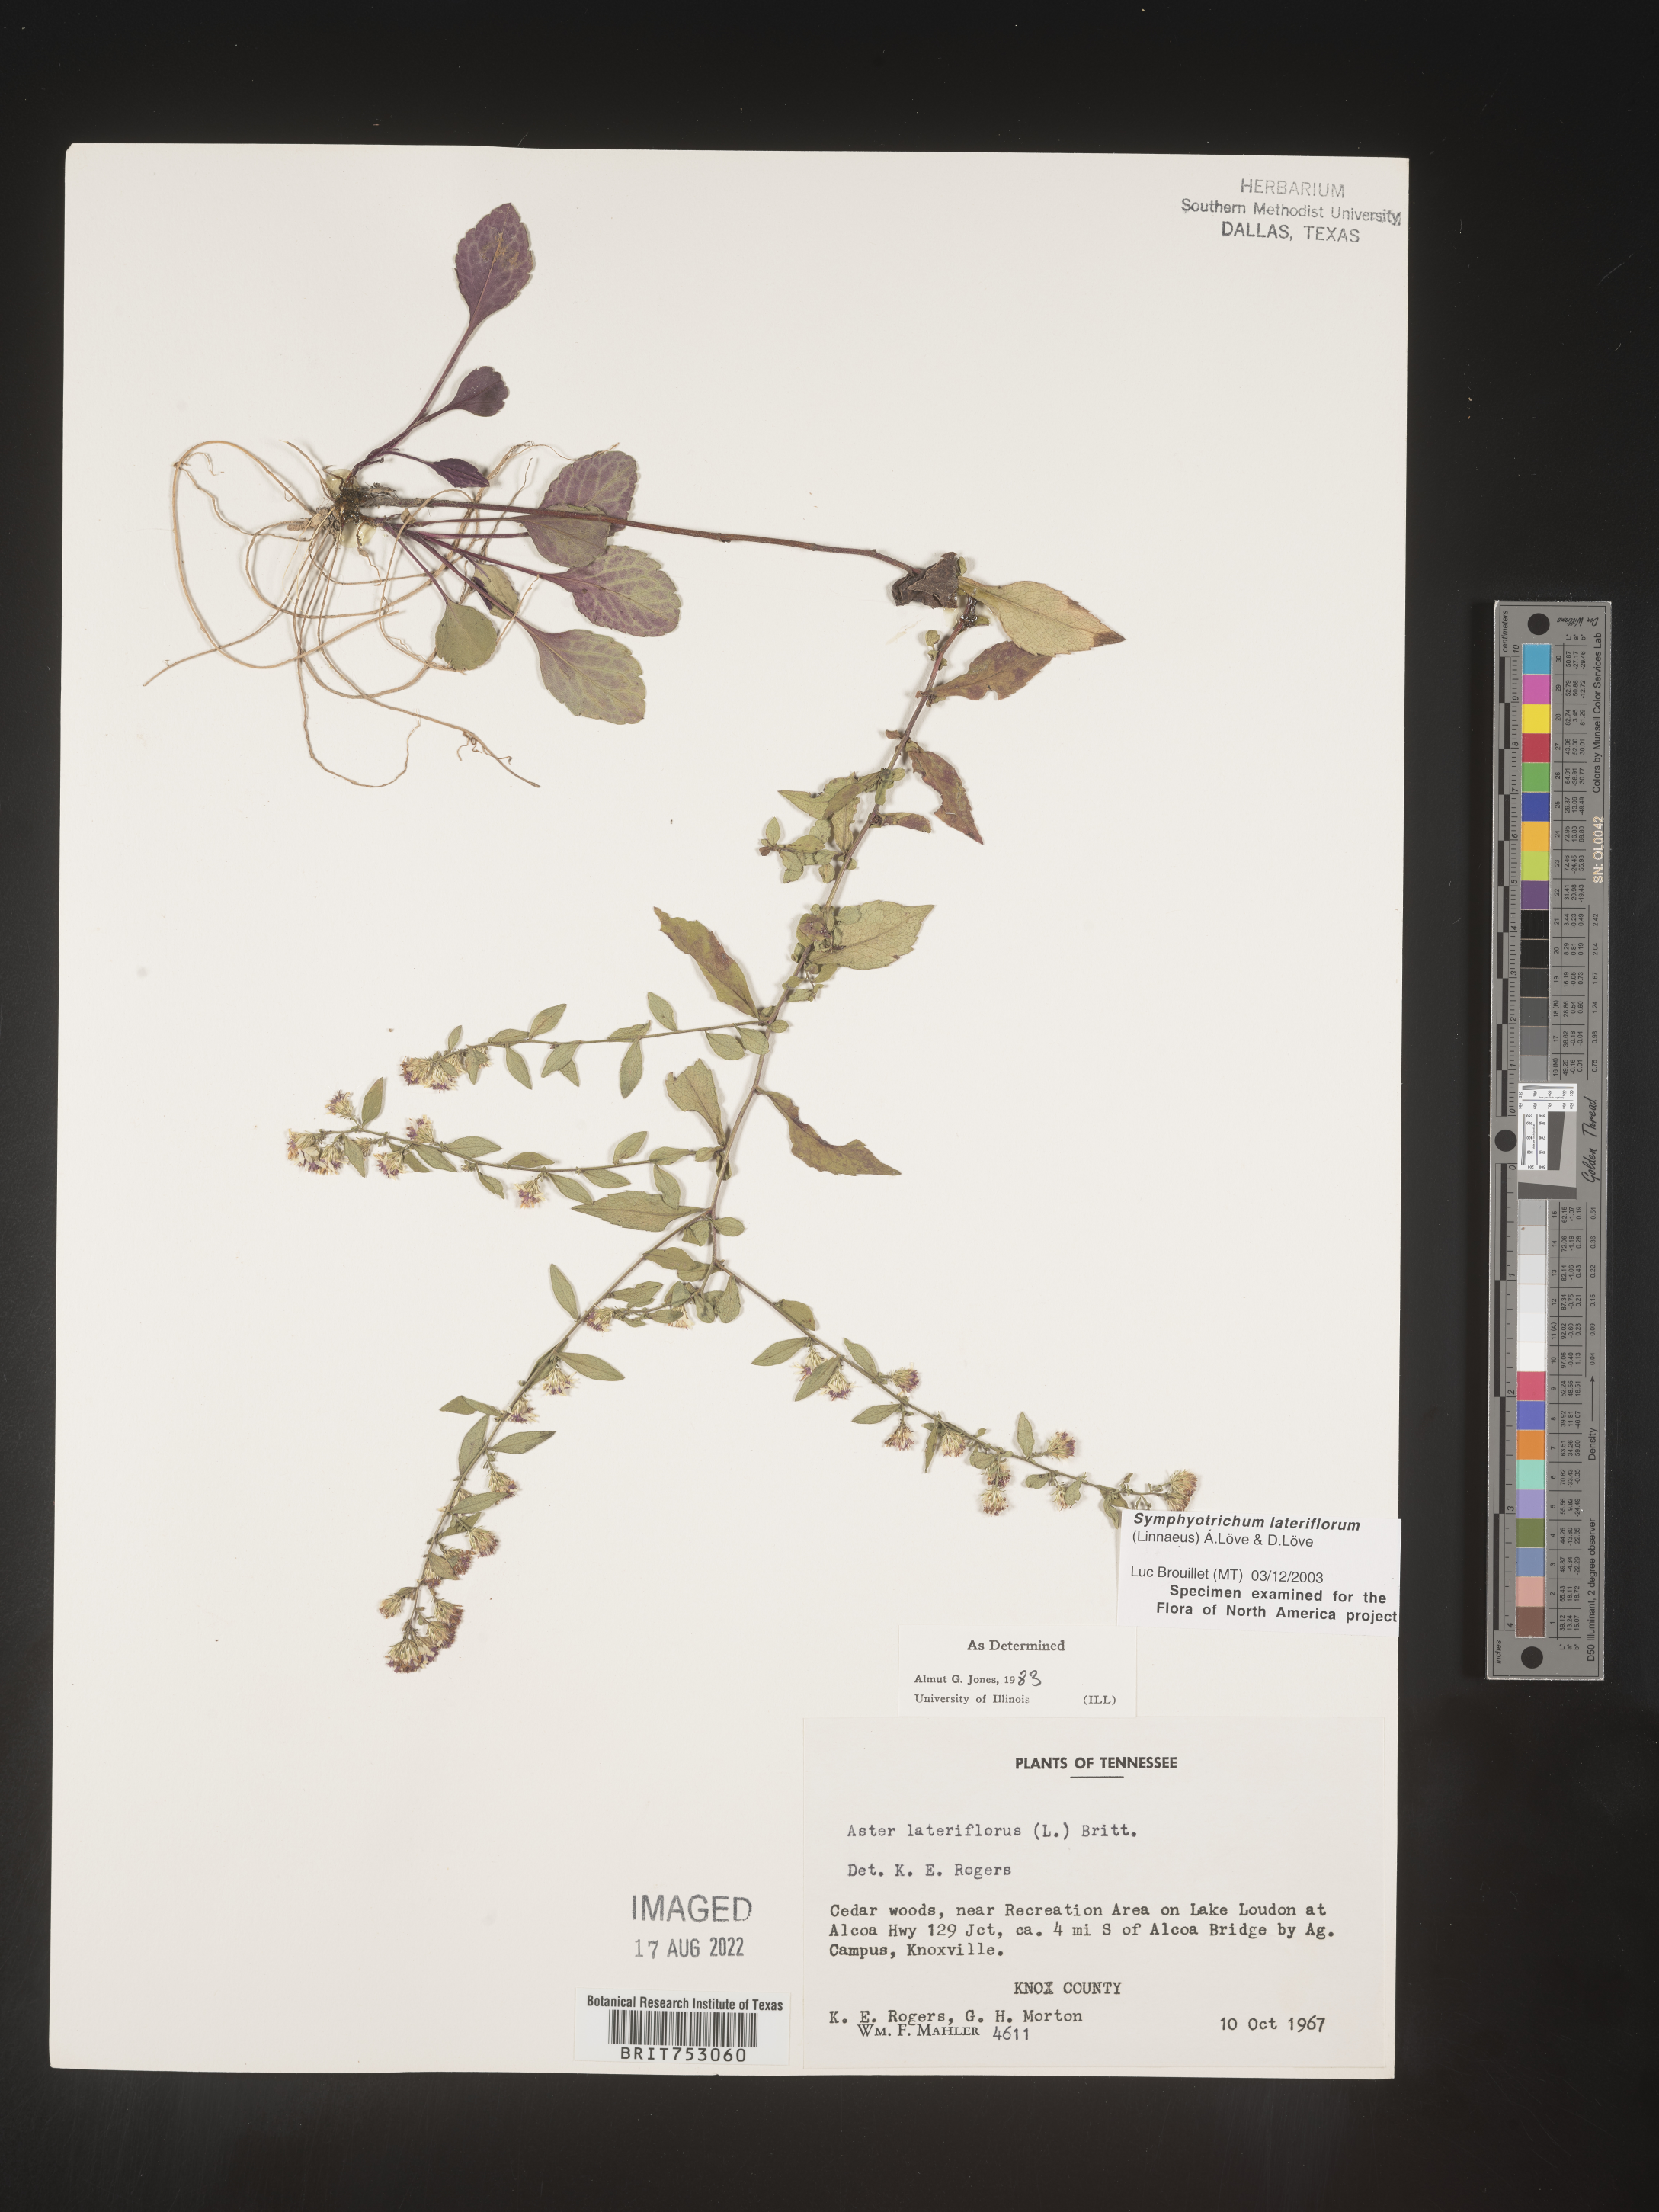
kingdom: Plantae
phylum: Tracheophyta
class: Magnoliopsida
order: Asterales
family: Asteraceae
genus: Symphyotrichum
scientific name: Symphyotrichum lateriflorum
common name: Calico aster
